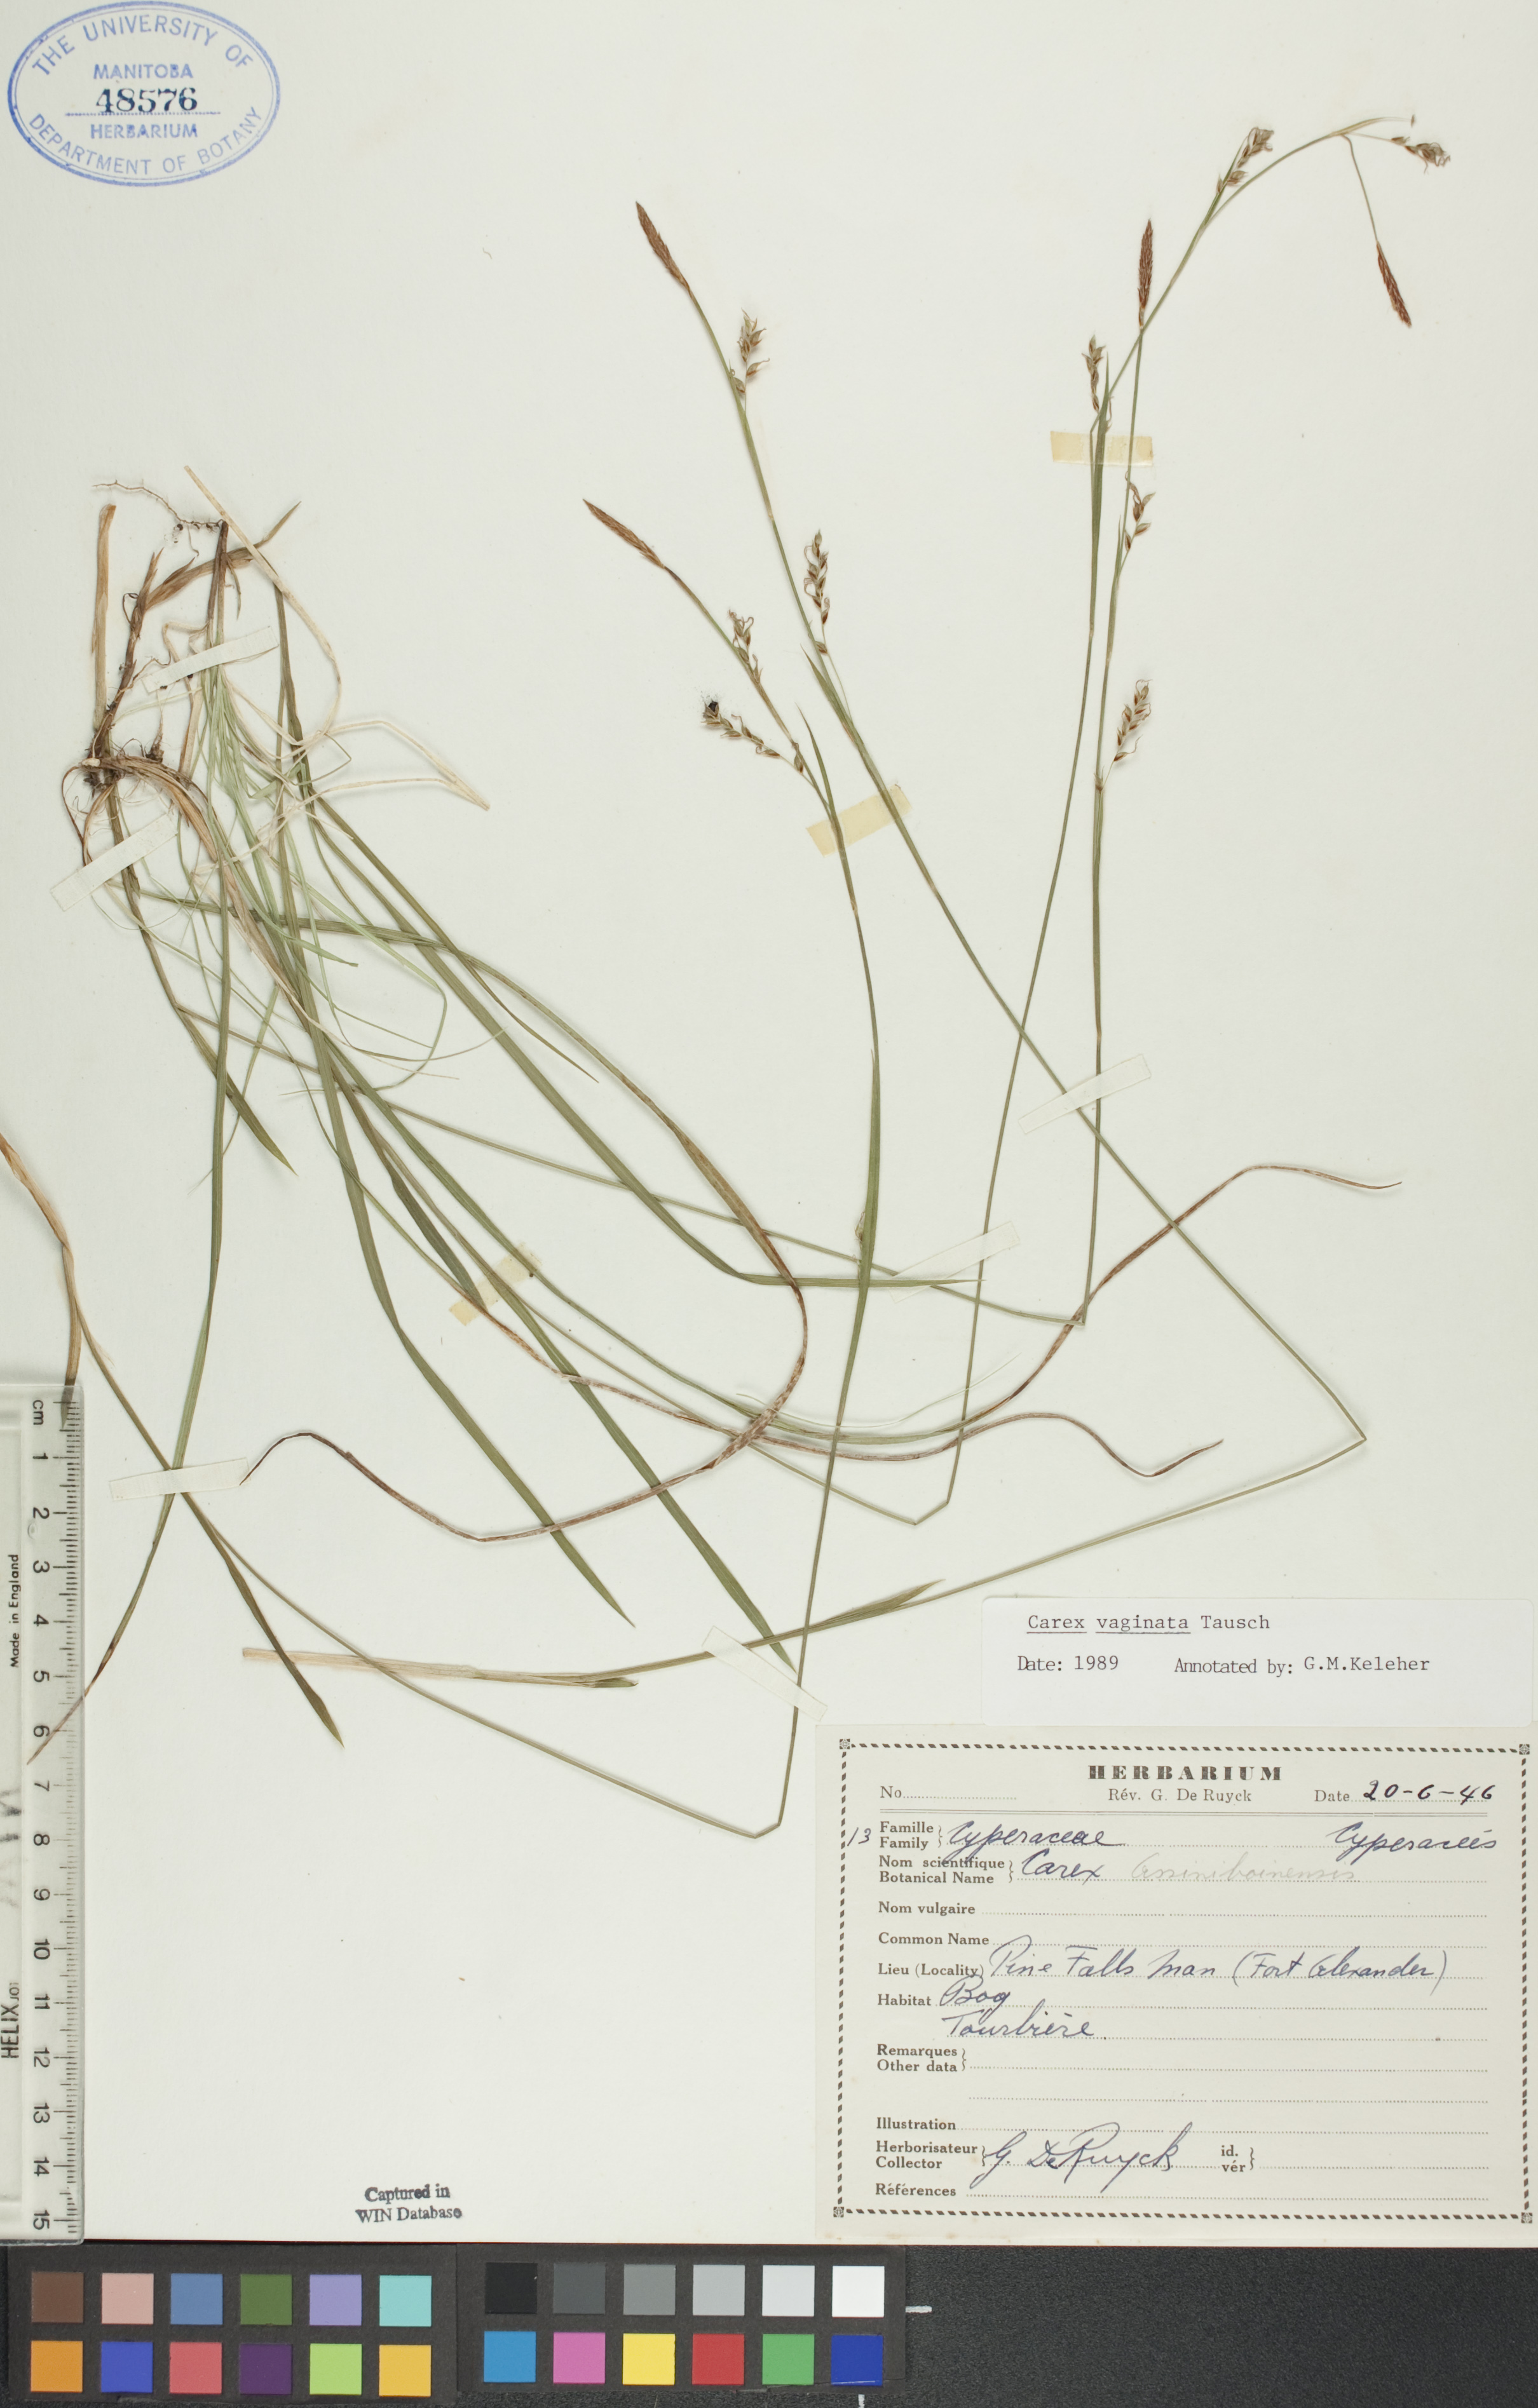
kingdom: Plantae
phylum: Tracheophyta
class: Liliopsida
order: Poales
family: Cyperaceae
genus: Carex
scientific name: Carex vaginata
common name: Sheathed sedge
